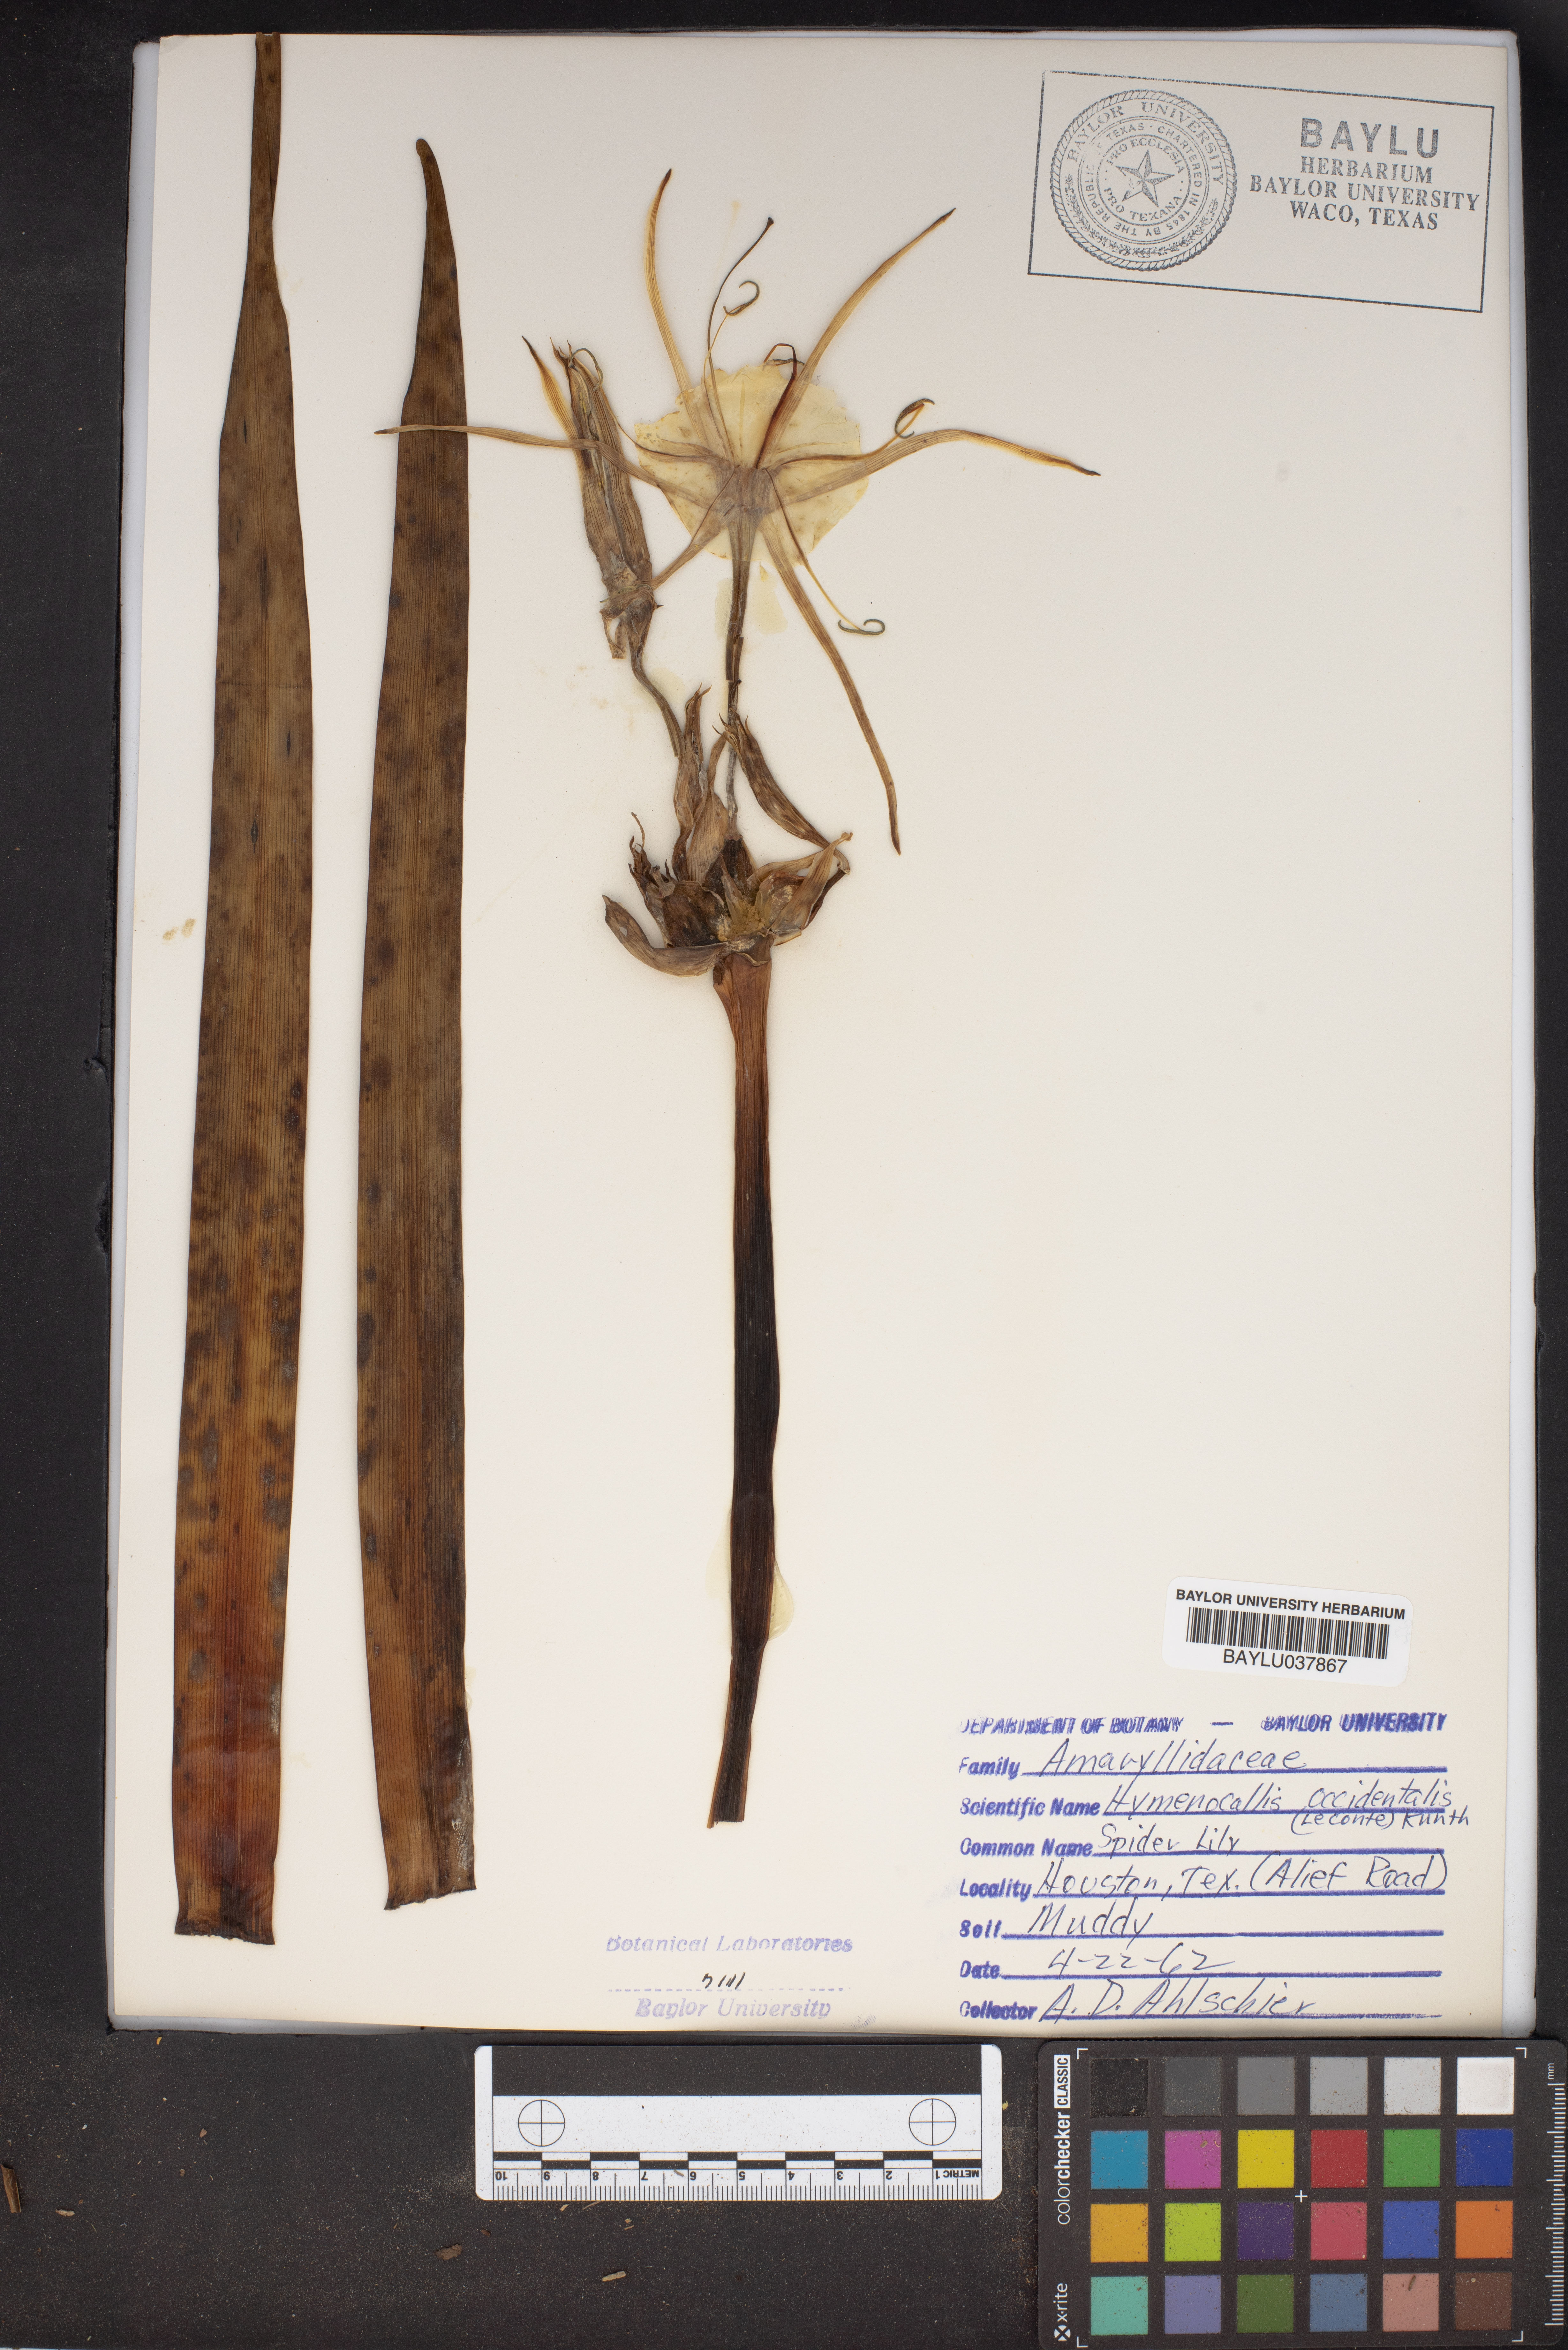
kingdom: Plantae
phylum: Tracheophyta
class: Liliopsida
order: Asparagales
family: Amaryllidaceae
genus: Hymenocallis
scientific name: Hymenocallis occidentalis
